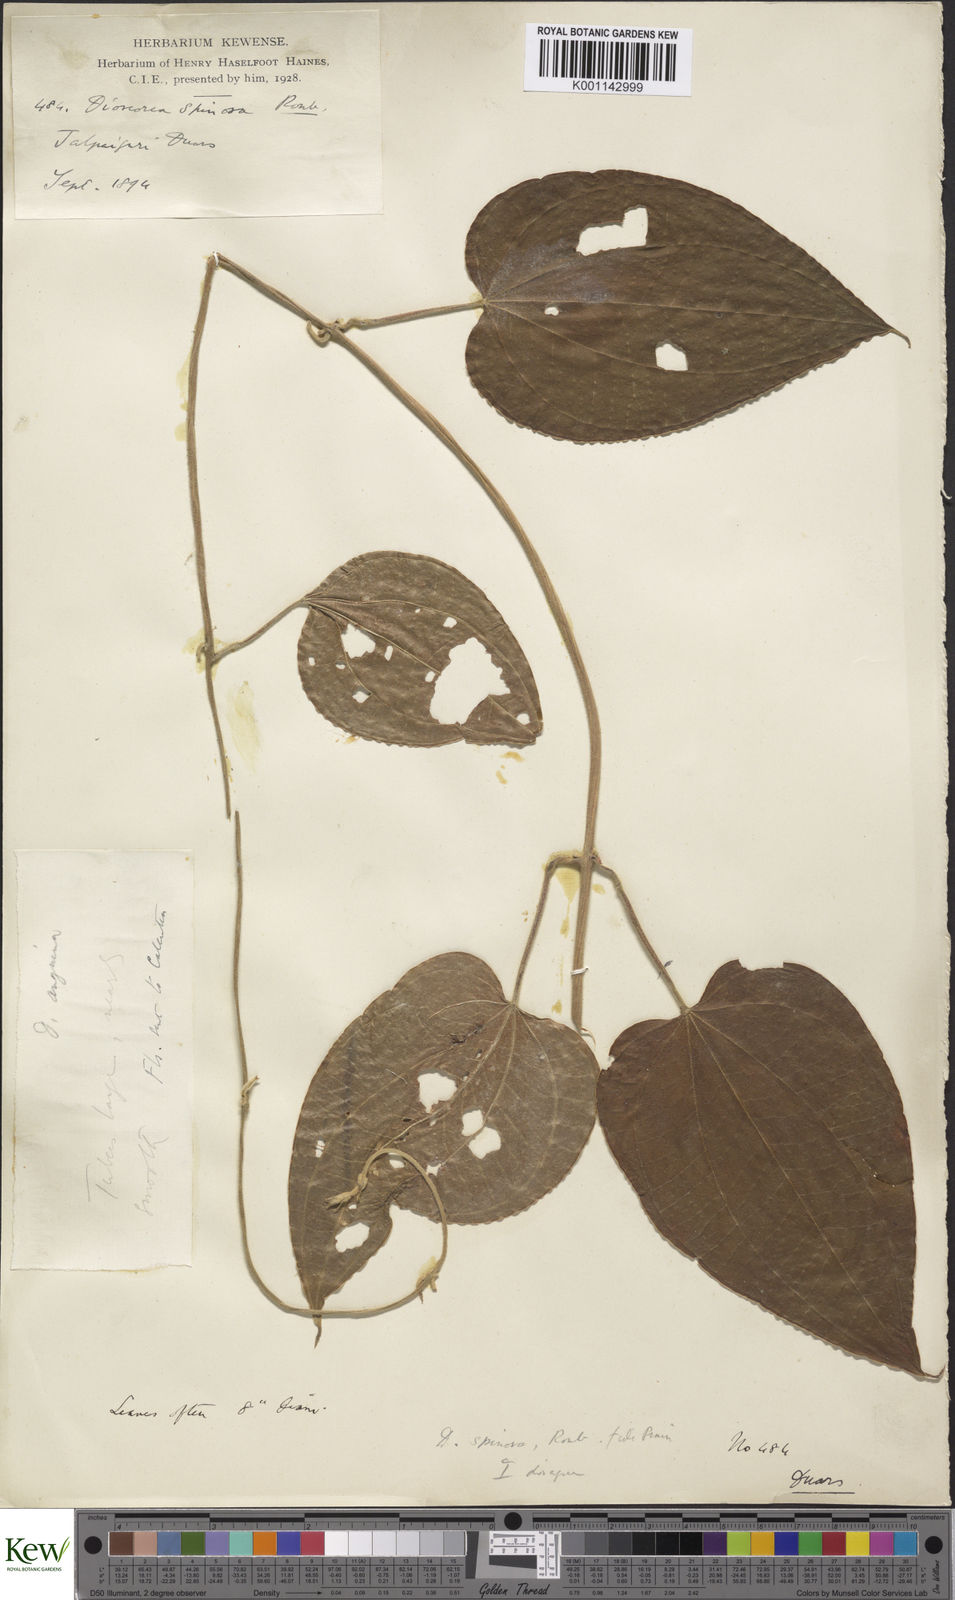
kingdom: Plantae
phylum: Tracheophyta
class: Liliopsida
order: Dioscoreales
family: Dioscoreaceae
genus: Dioscorea
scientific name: Dioscorea pubera
